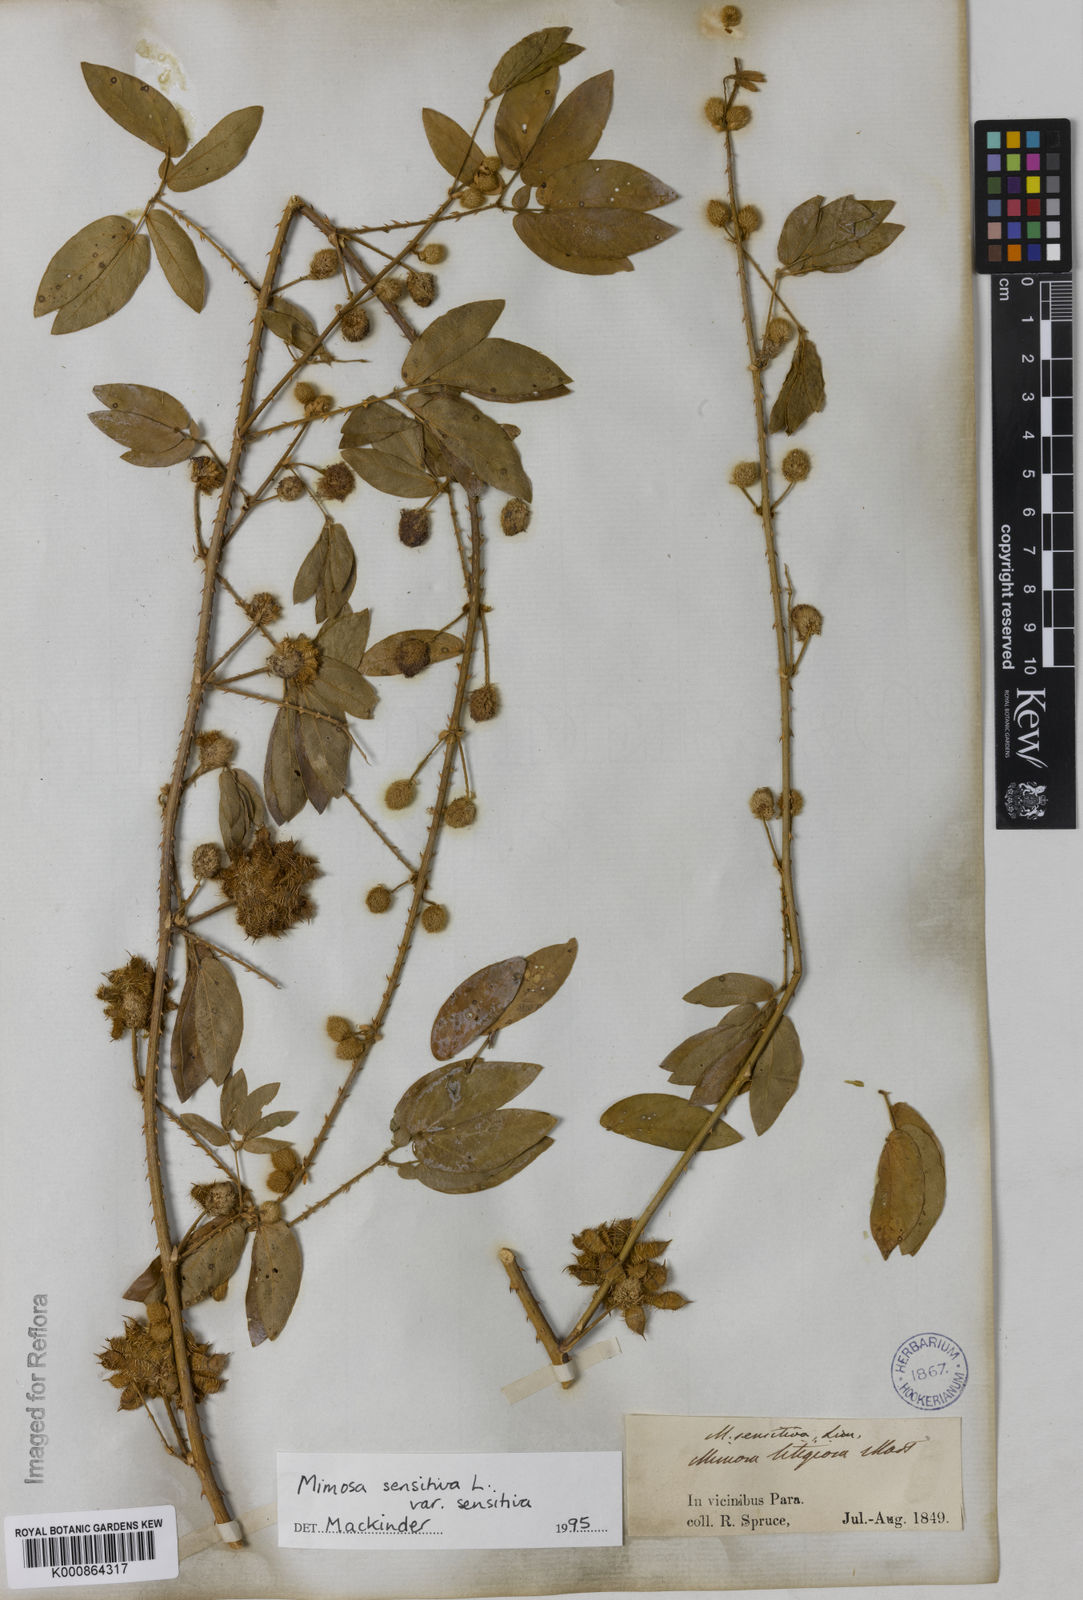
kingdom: Plantae
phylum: Tracheophyta
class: Magnoliopsida
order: Fabales
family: Fabaceae
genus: Mimosa
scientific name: Mimosa sensitiva
